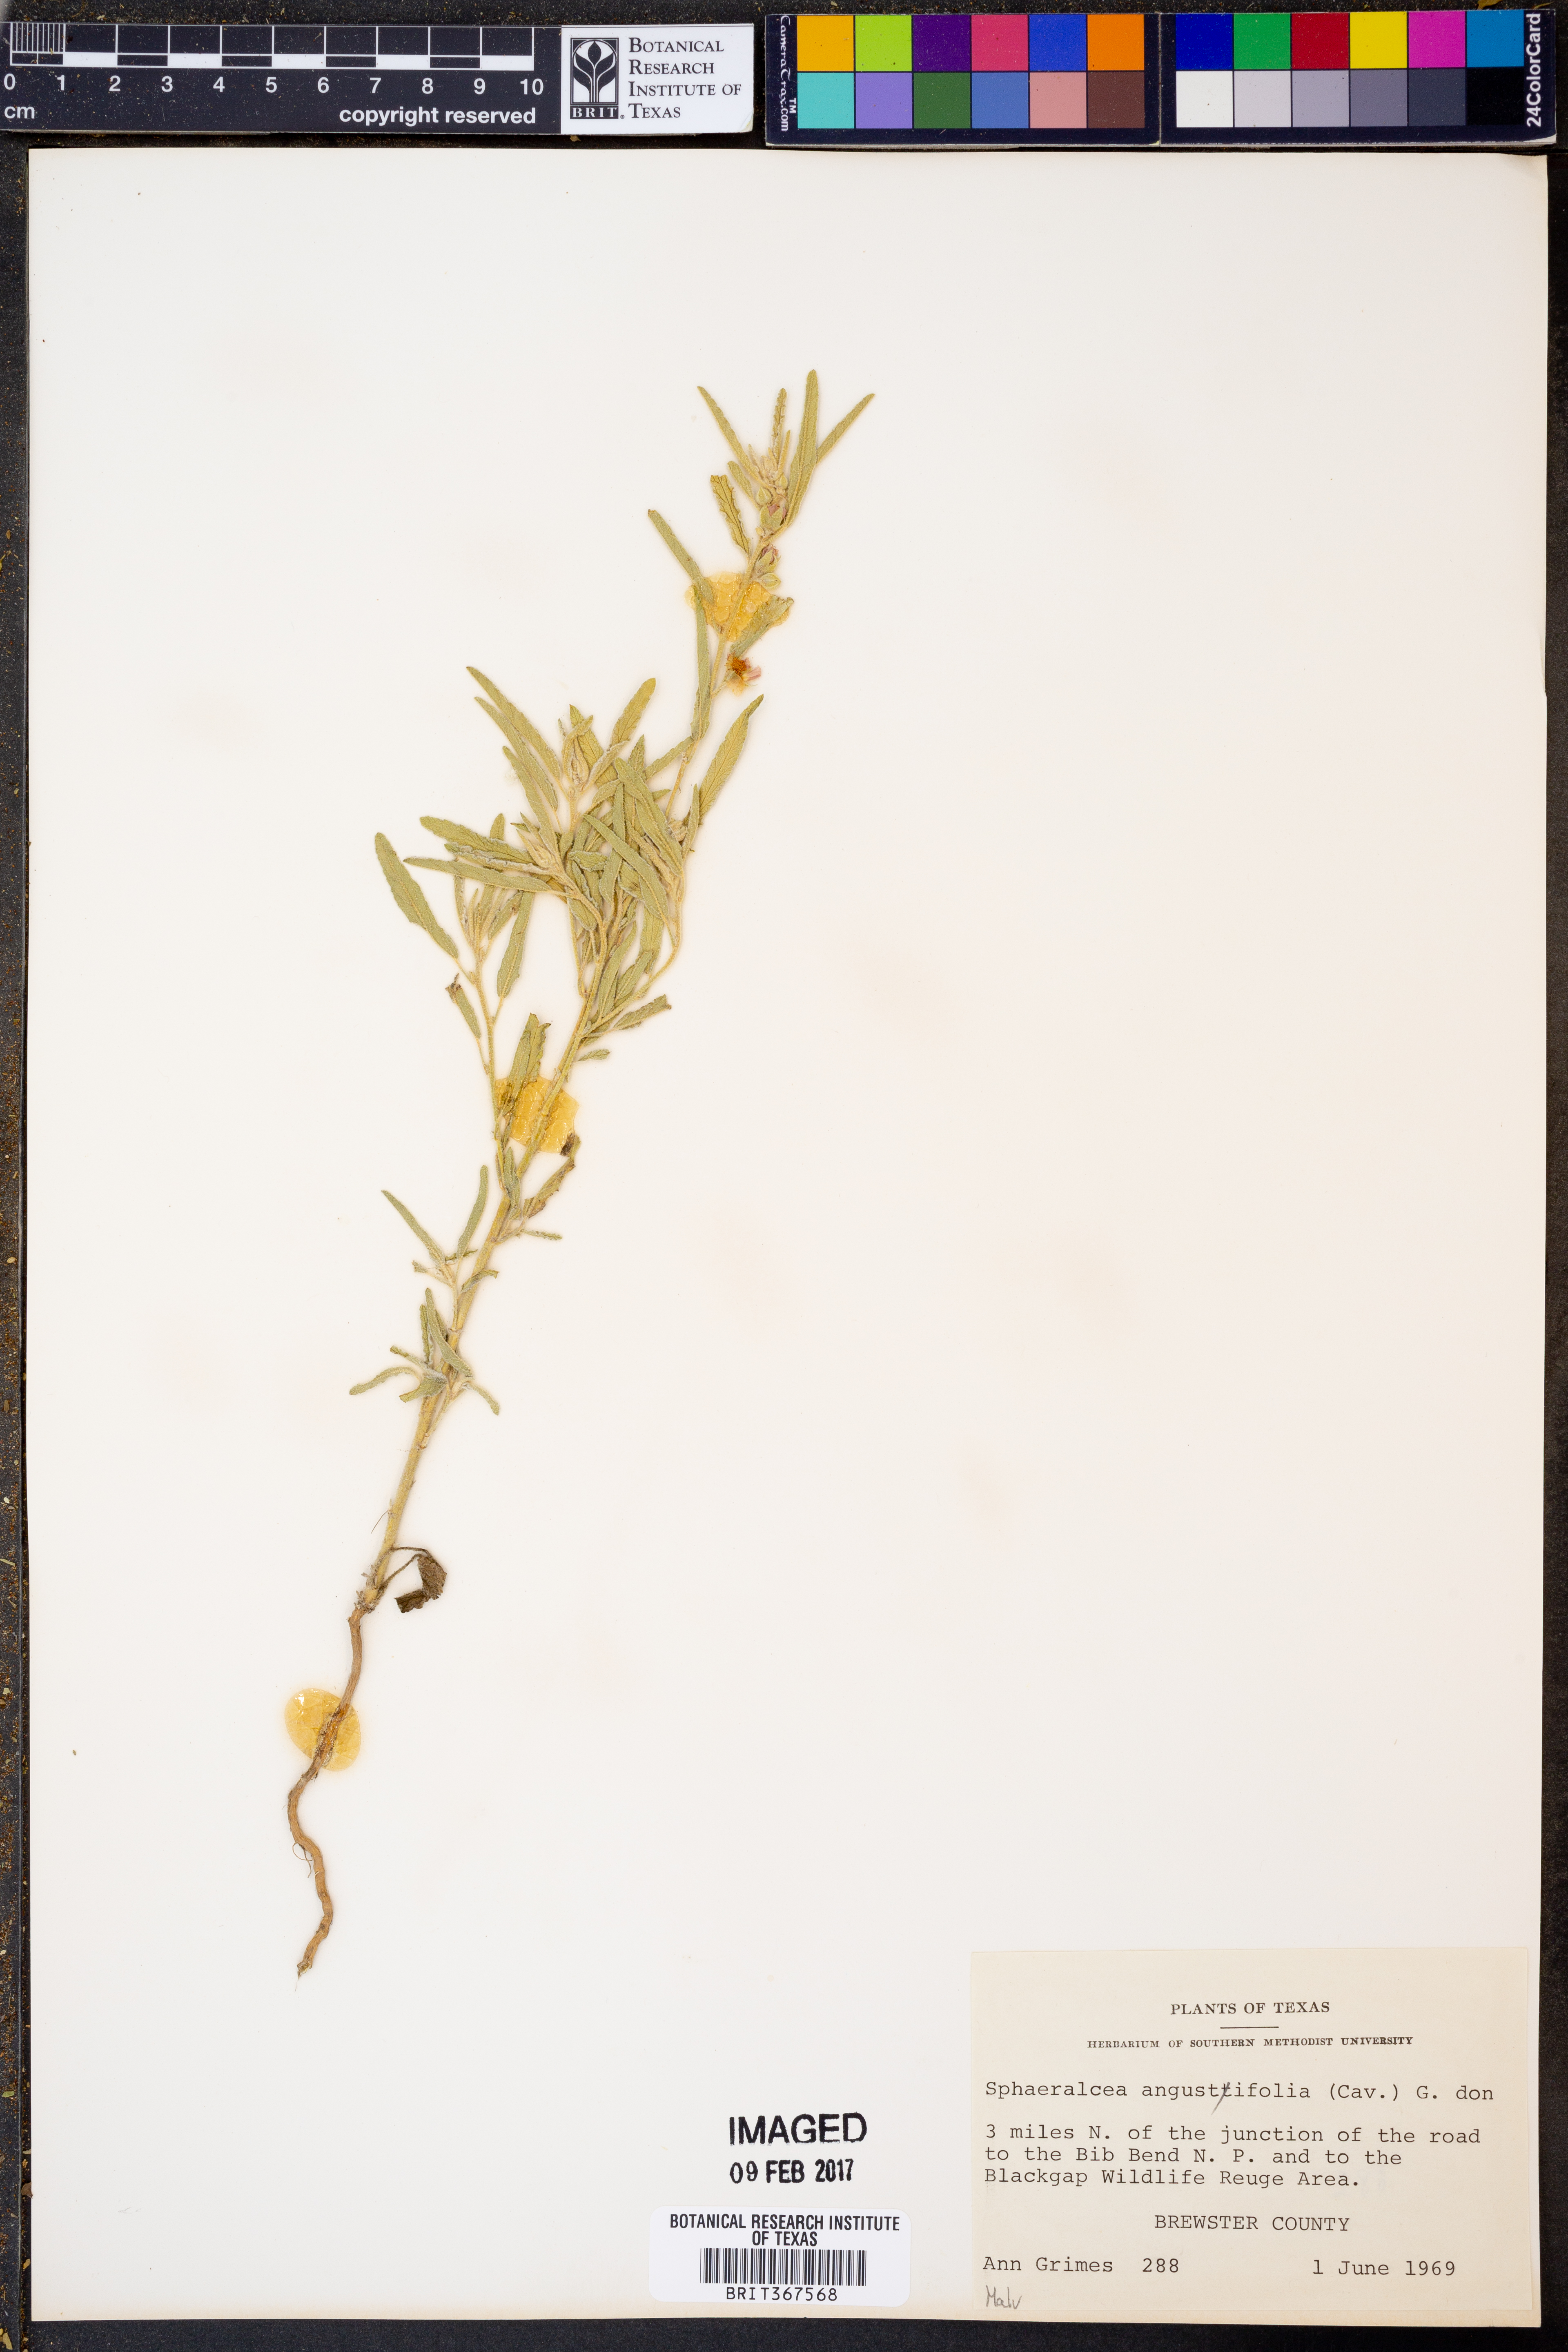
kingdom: Plantae
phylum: Tracheophyta
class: Magnoliopsida
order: Malvales
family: Malvaceae
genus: Sphaeralcea
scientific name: Sphaeralcea angustifolia
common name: Copper globe-mallow
